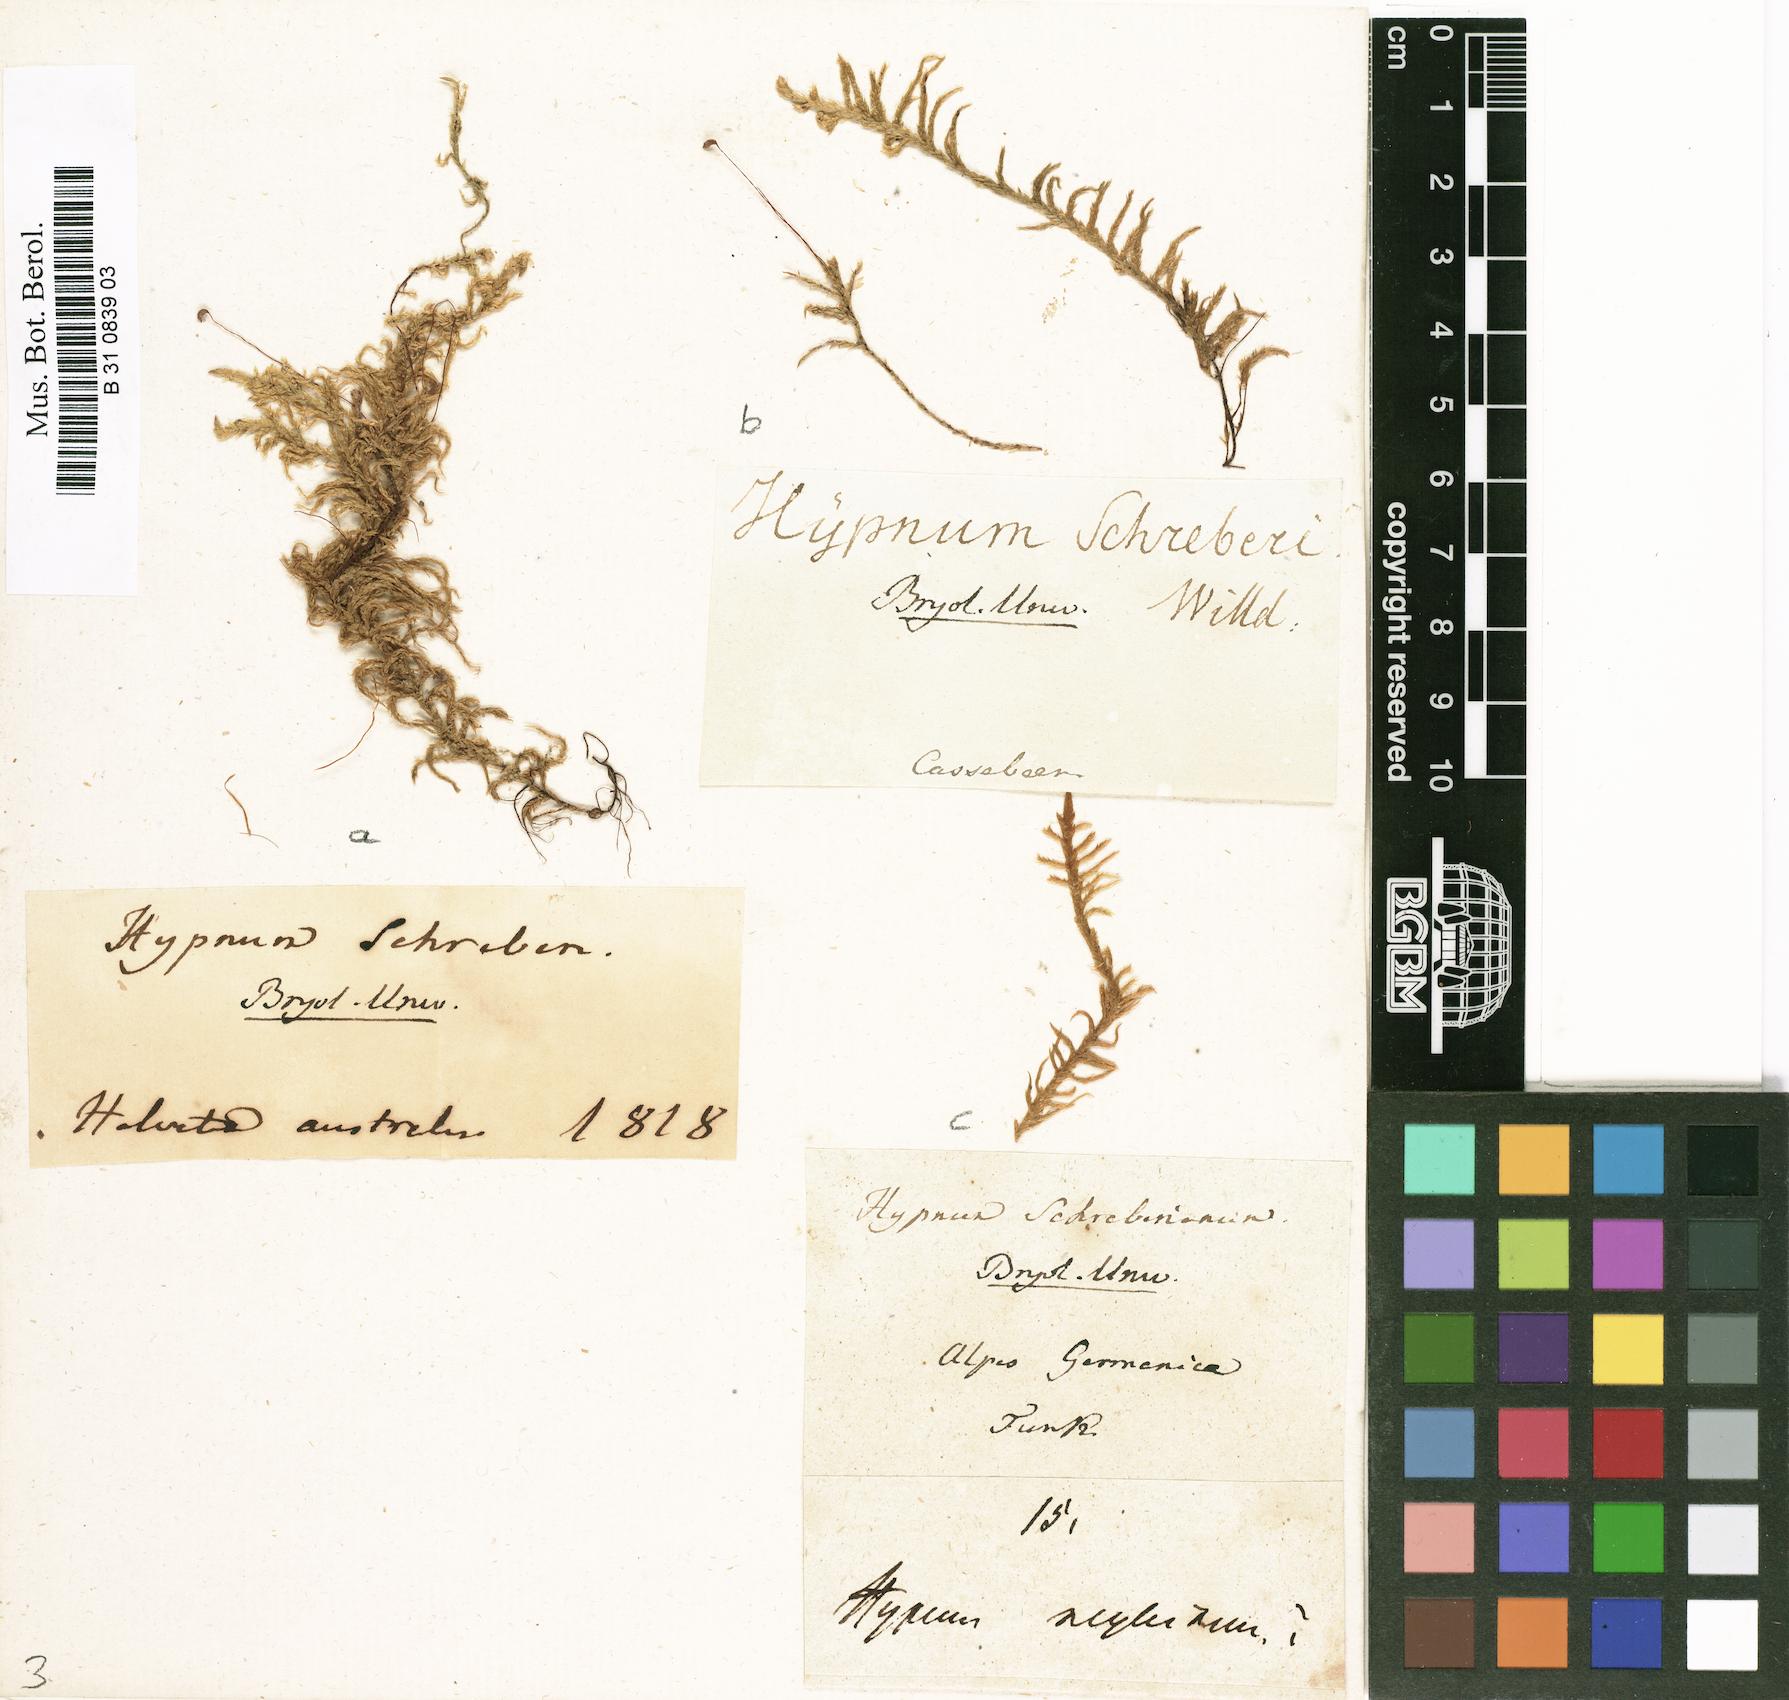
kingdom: Plantae
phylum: Bryophyta
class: Bryopsida
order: Hypnales
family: Hylocomiaceae
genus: Pleurozium
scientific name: Pleurozium schreberi
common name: Red-stemmed feather moss
